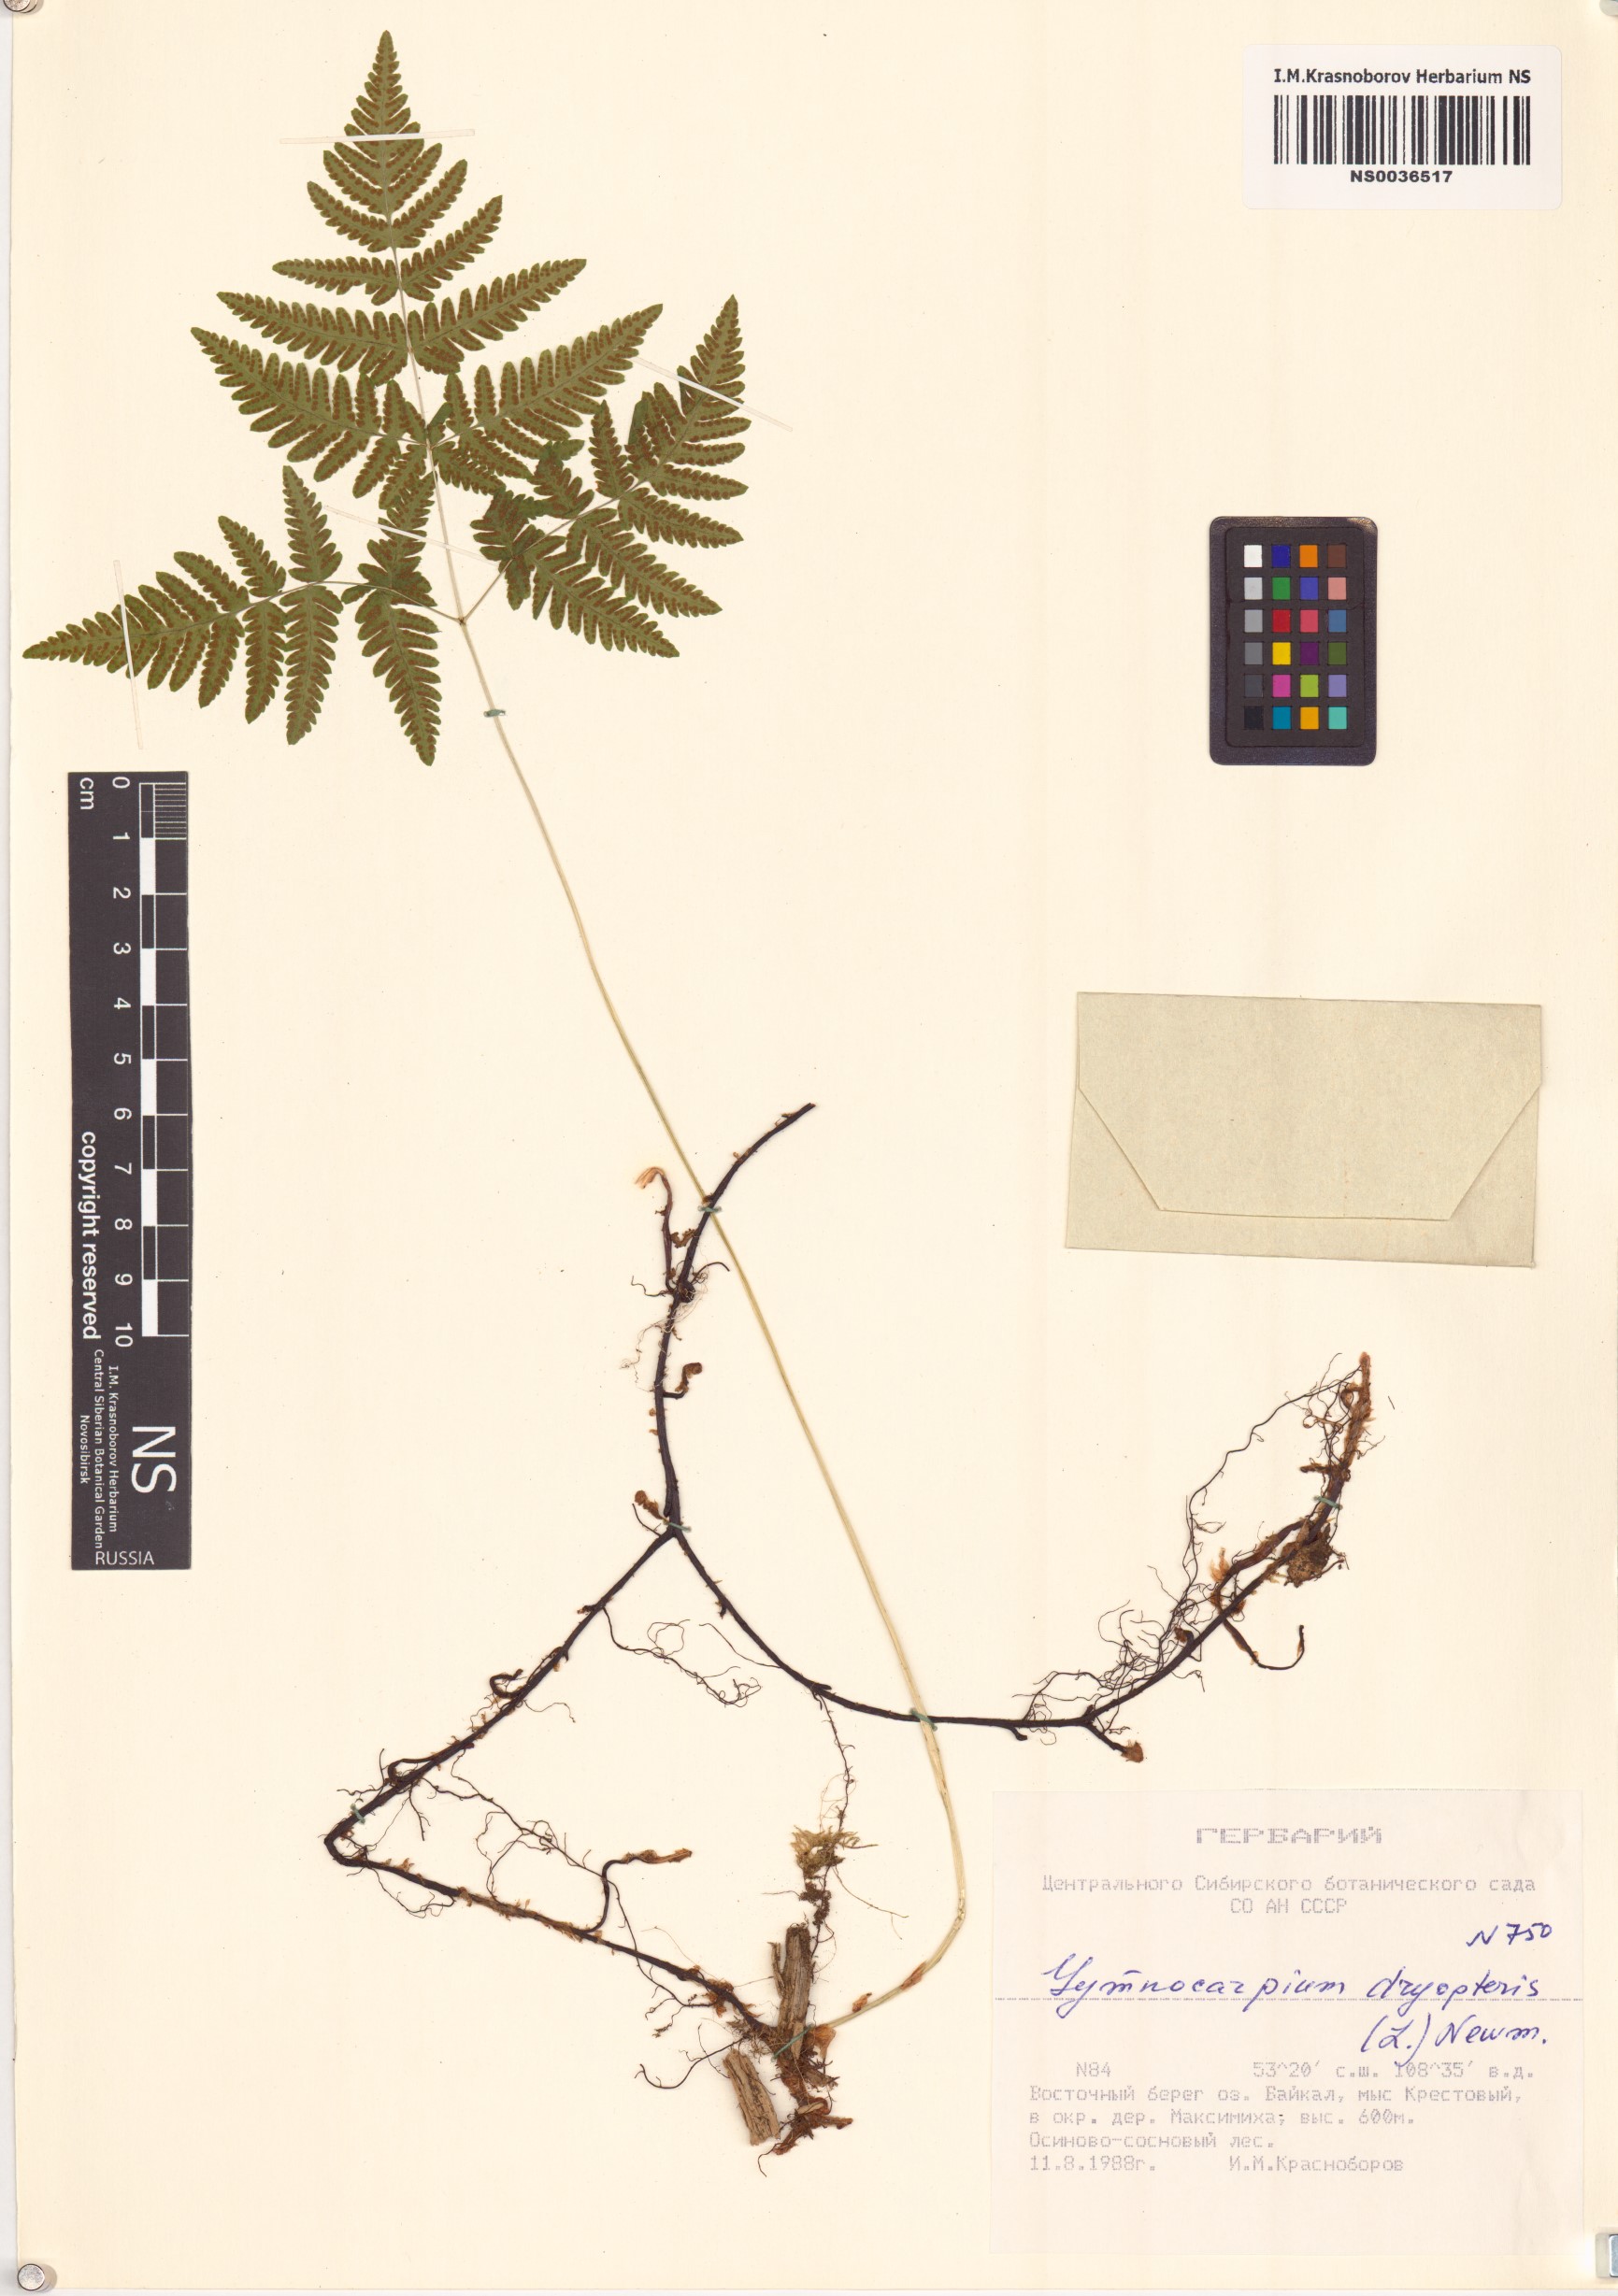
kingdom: Plantae
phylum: Tracheophyta
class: Polypodiopsida
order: Polypodiales
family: Cystopteridaceae
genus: Gymnocarpium
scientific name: Gymnocarpium dryopteris
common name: Oak fern
